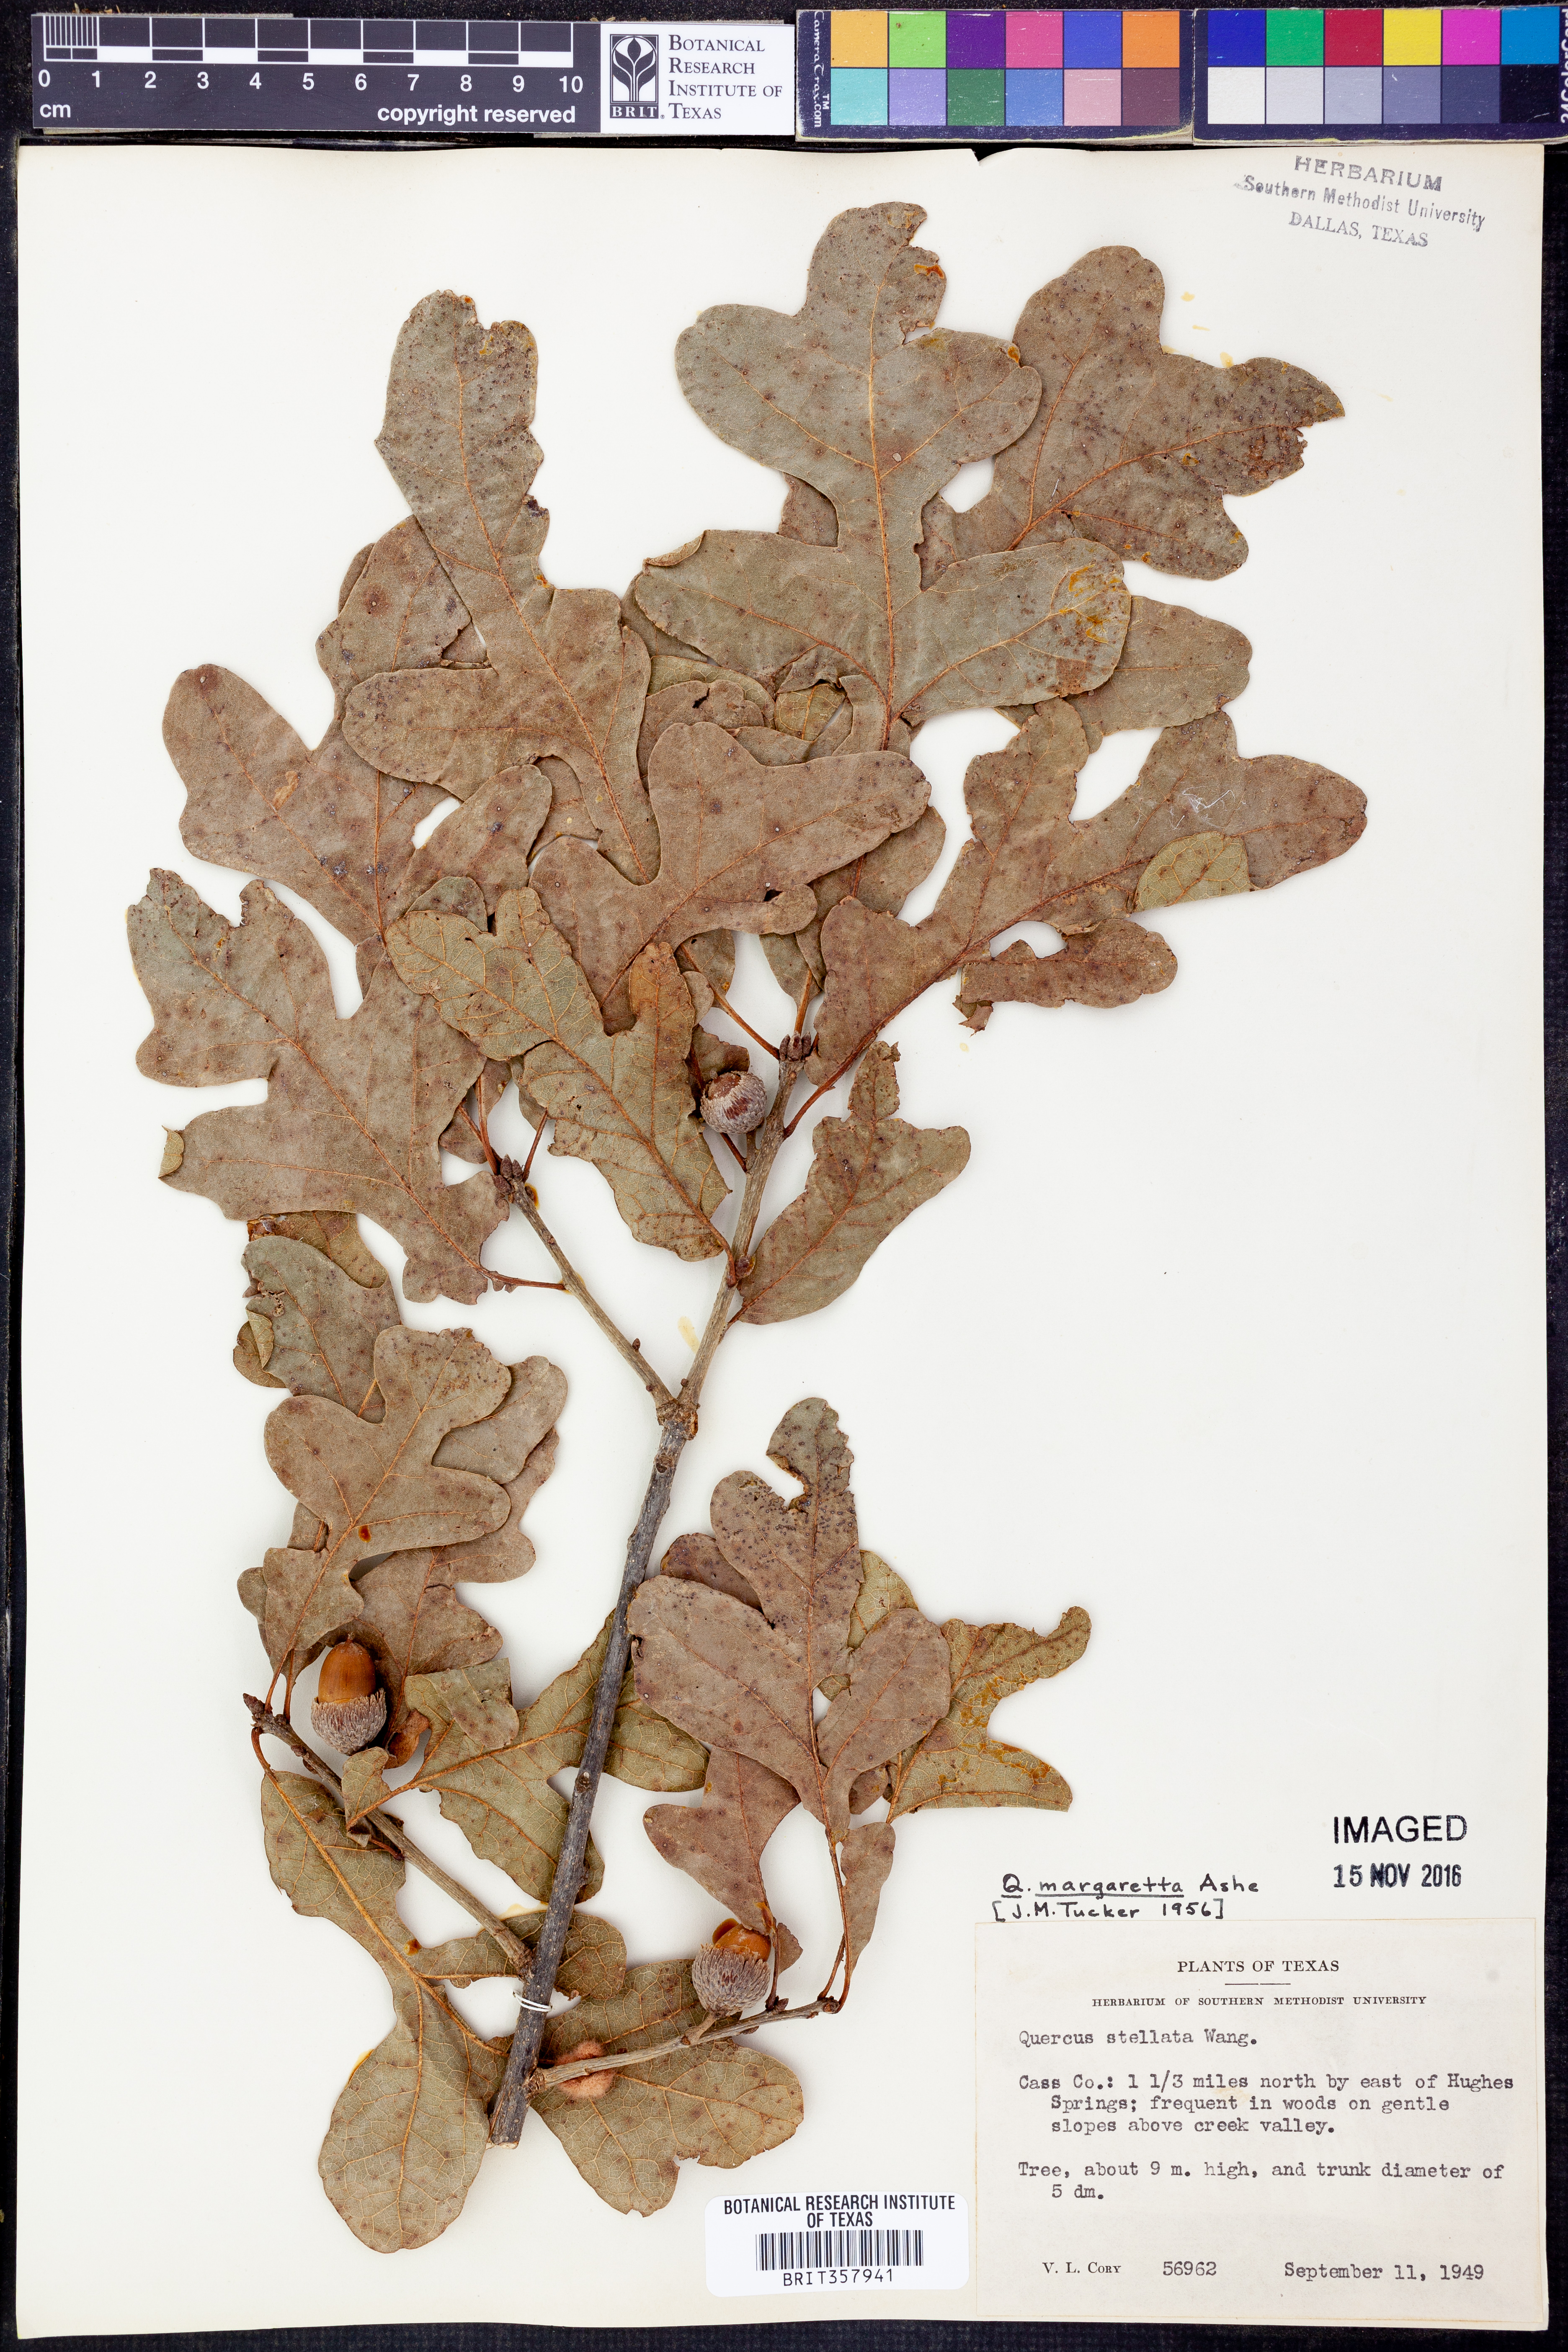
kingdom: Plantae
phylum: Tracheophyta
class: Magnoliopsida
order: Fagales
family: Fagaceae
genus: Quercus
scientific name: Quercus margaretta
